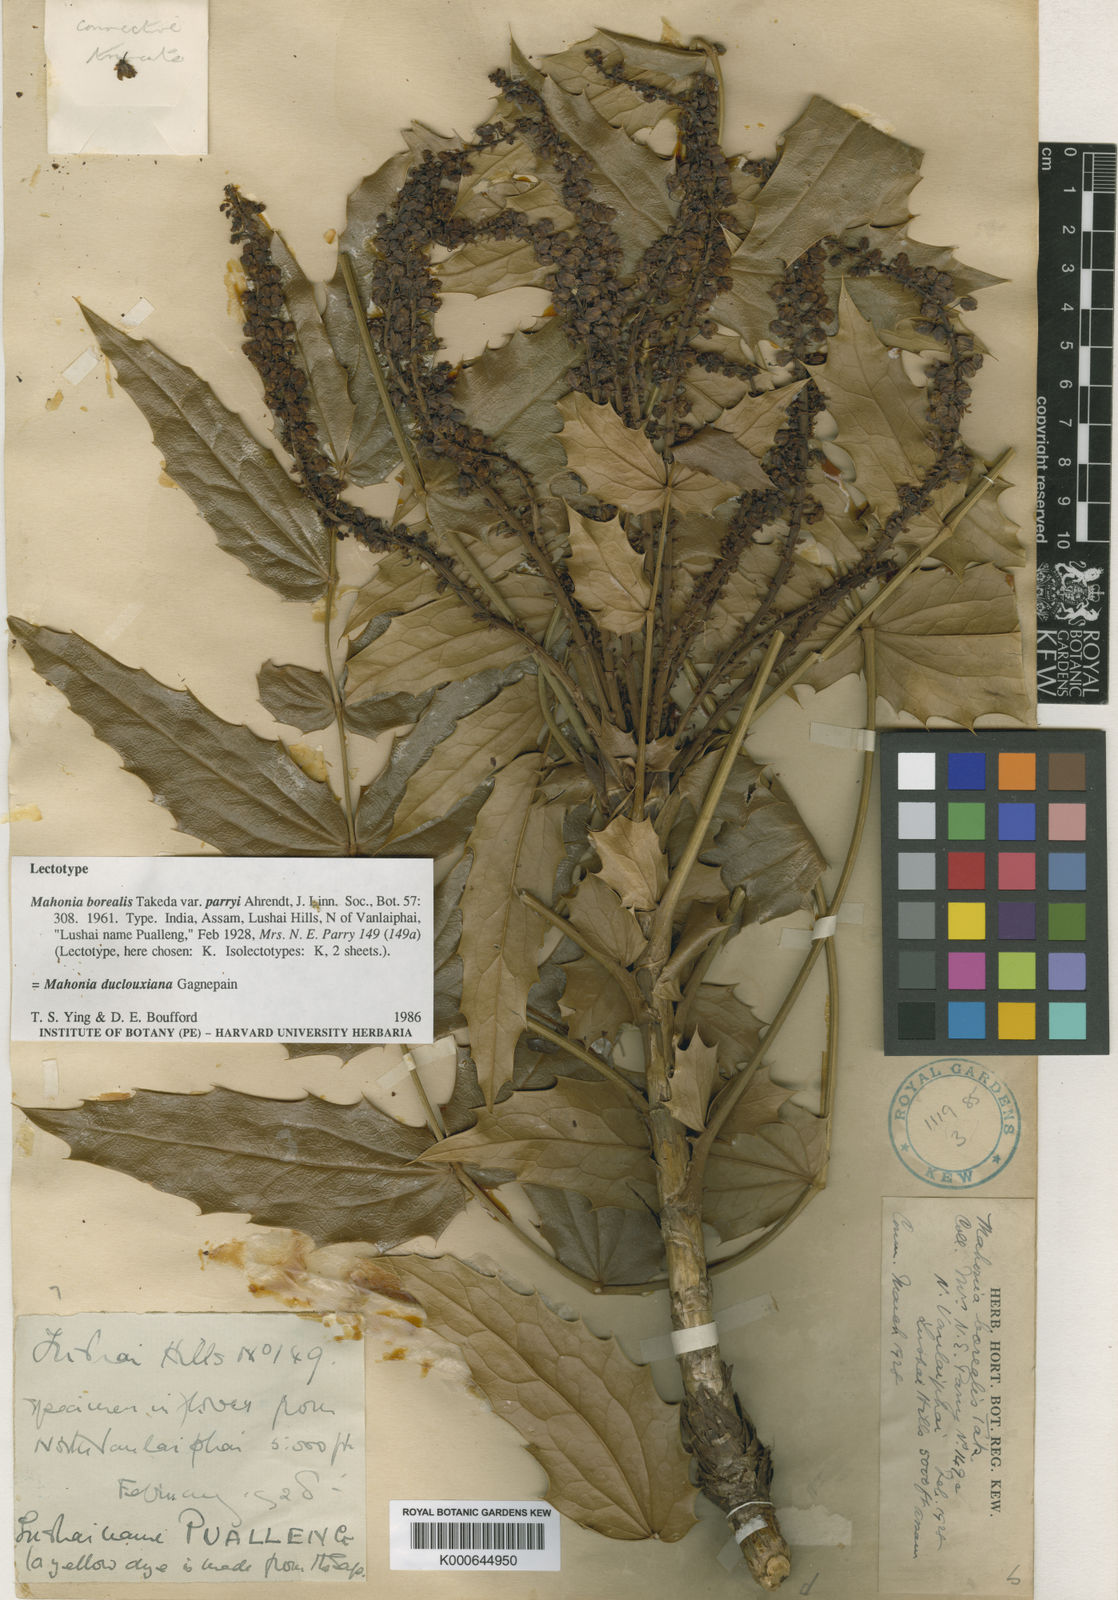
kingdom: Plantae
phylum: Tracheophyta
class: Magnoliopsida
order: Ranunculales
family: Berberidaceae
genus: Mahonia
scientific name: Mahonia napaulensis
